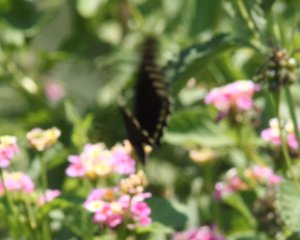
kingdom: Animalia
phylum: Arthropoda
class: Insecta
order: Lepidoptera
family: Papilionidae
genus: Battus
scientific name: Battus polydamas
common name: Polydamas Swallowtail
